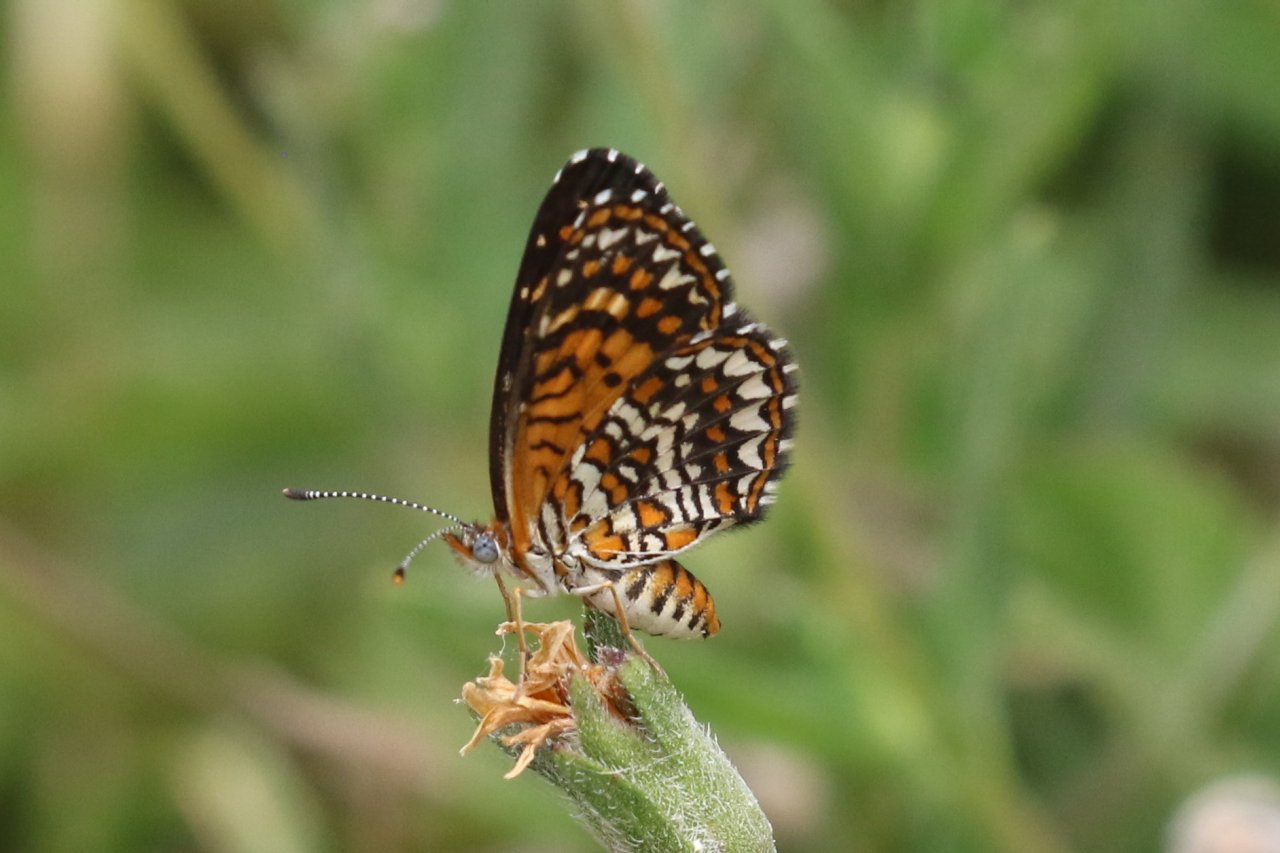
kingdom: Animalia
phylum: Arthropoda
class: Insecta
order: Lepidoptera
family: Nymphalidae
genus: Texola
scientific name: Texola elada
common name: Elada Checkerspot
